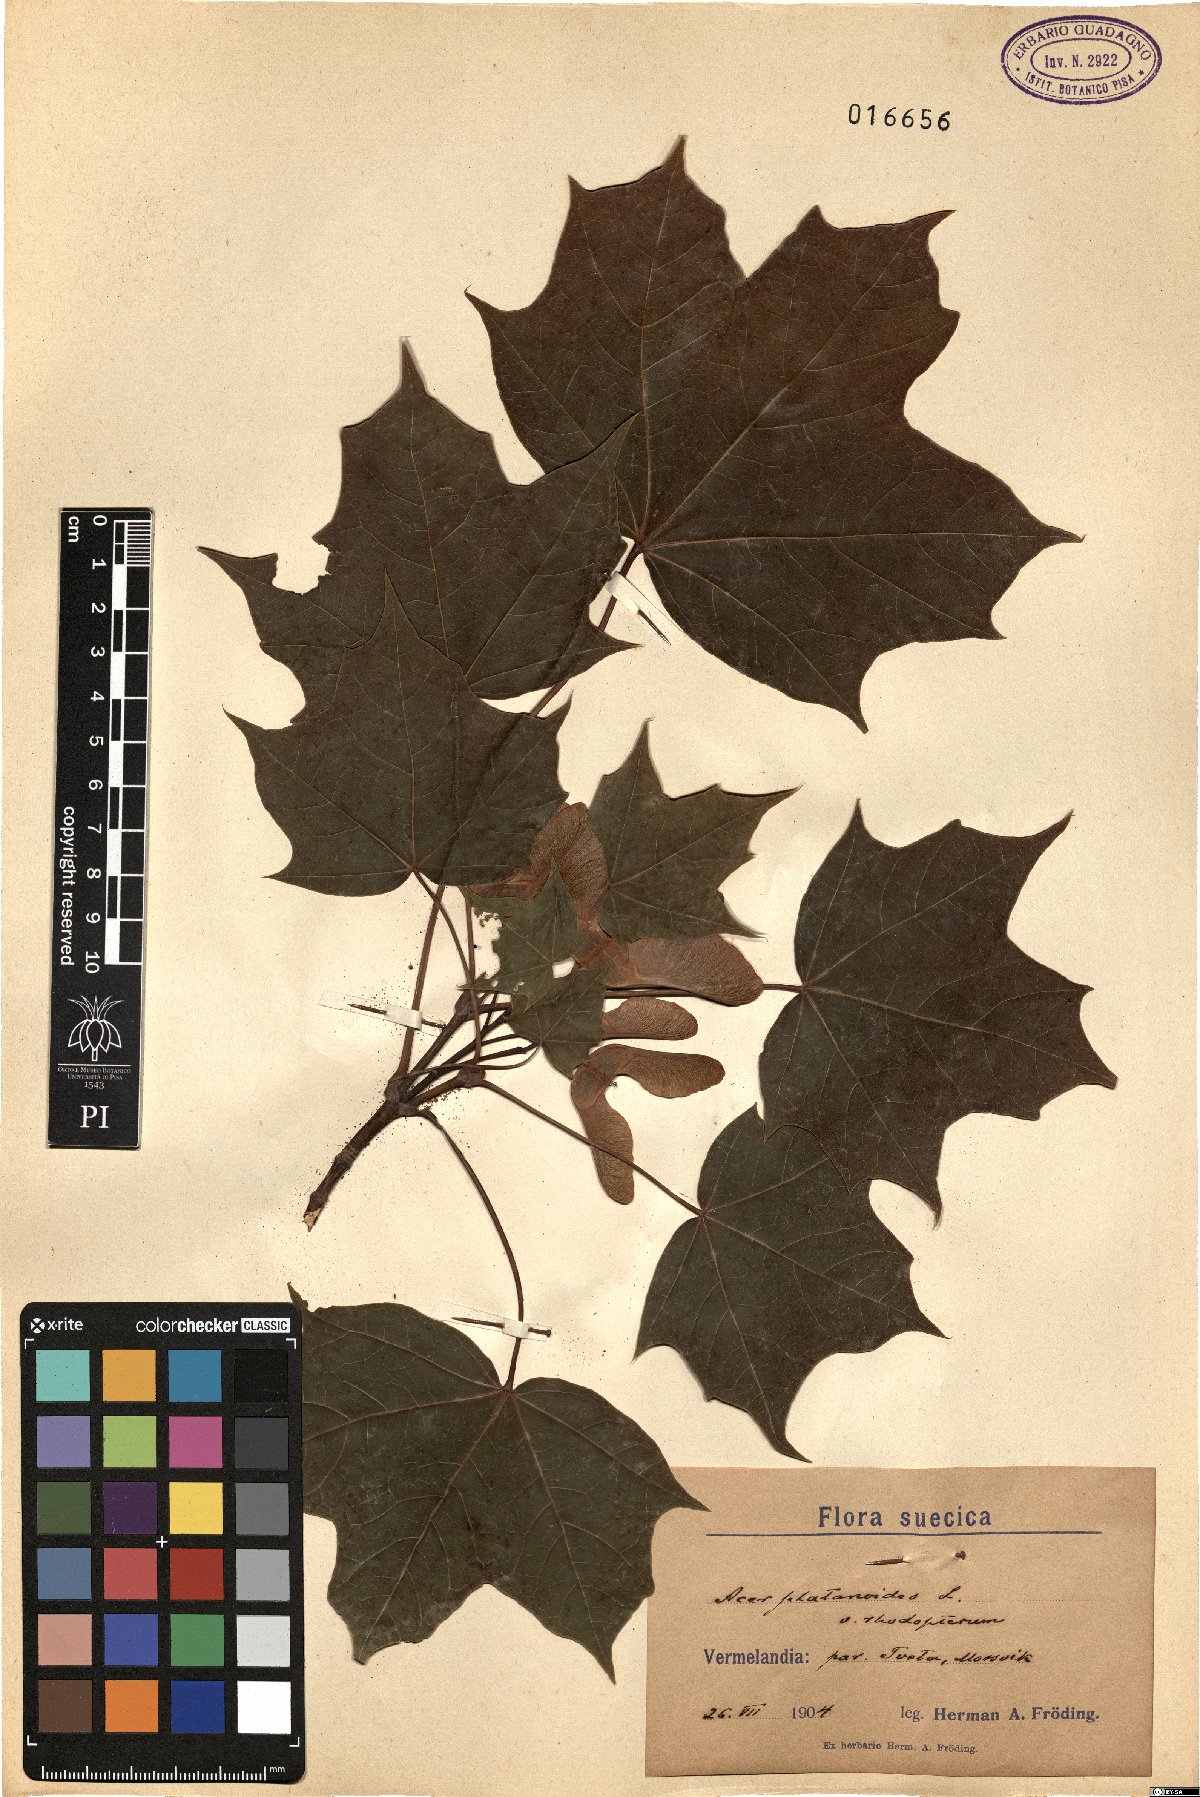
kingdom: Plantae
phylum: Tracheophyta
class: Magnoliopsida
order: Sapindales
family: Sapindaceae
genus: Acer
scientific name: Acer platanoides
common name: Norway maple
